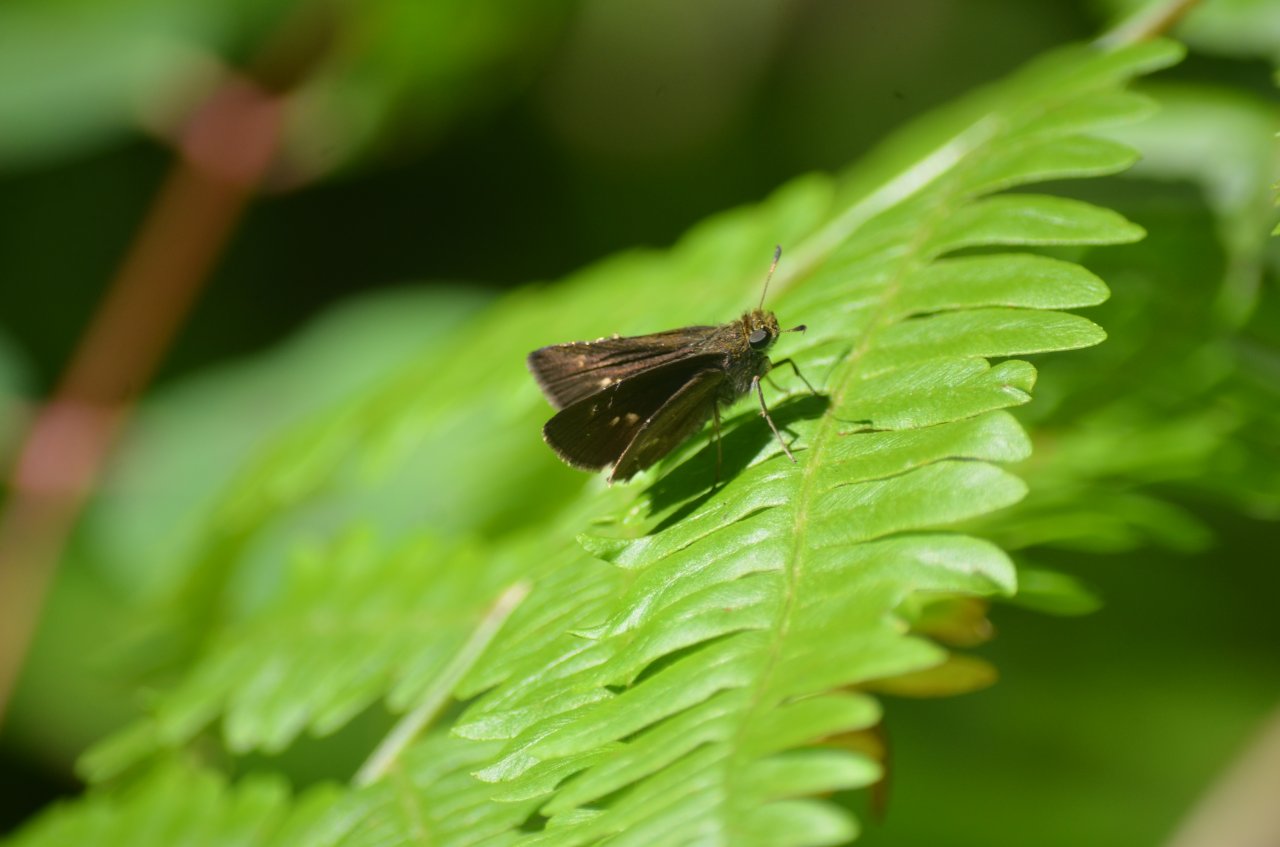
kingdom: Animalia
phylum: Arthropoda
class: Insecta
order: Lepidoptera
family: Hesperiidae
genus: Euphyes
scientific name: Euphyes vestris
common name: Dun Skipper
